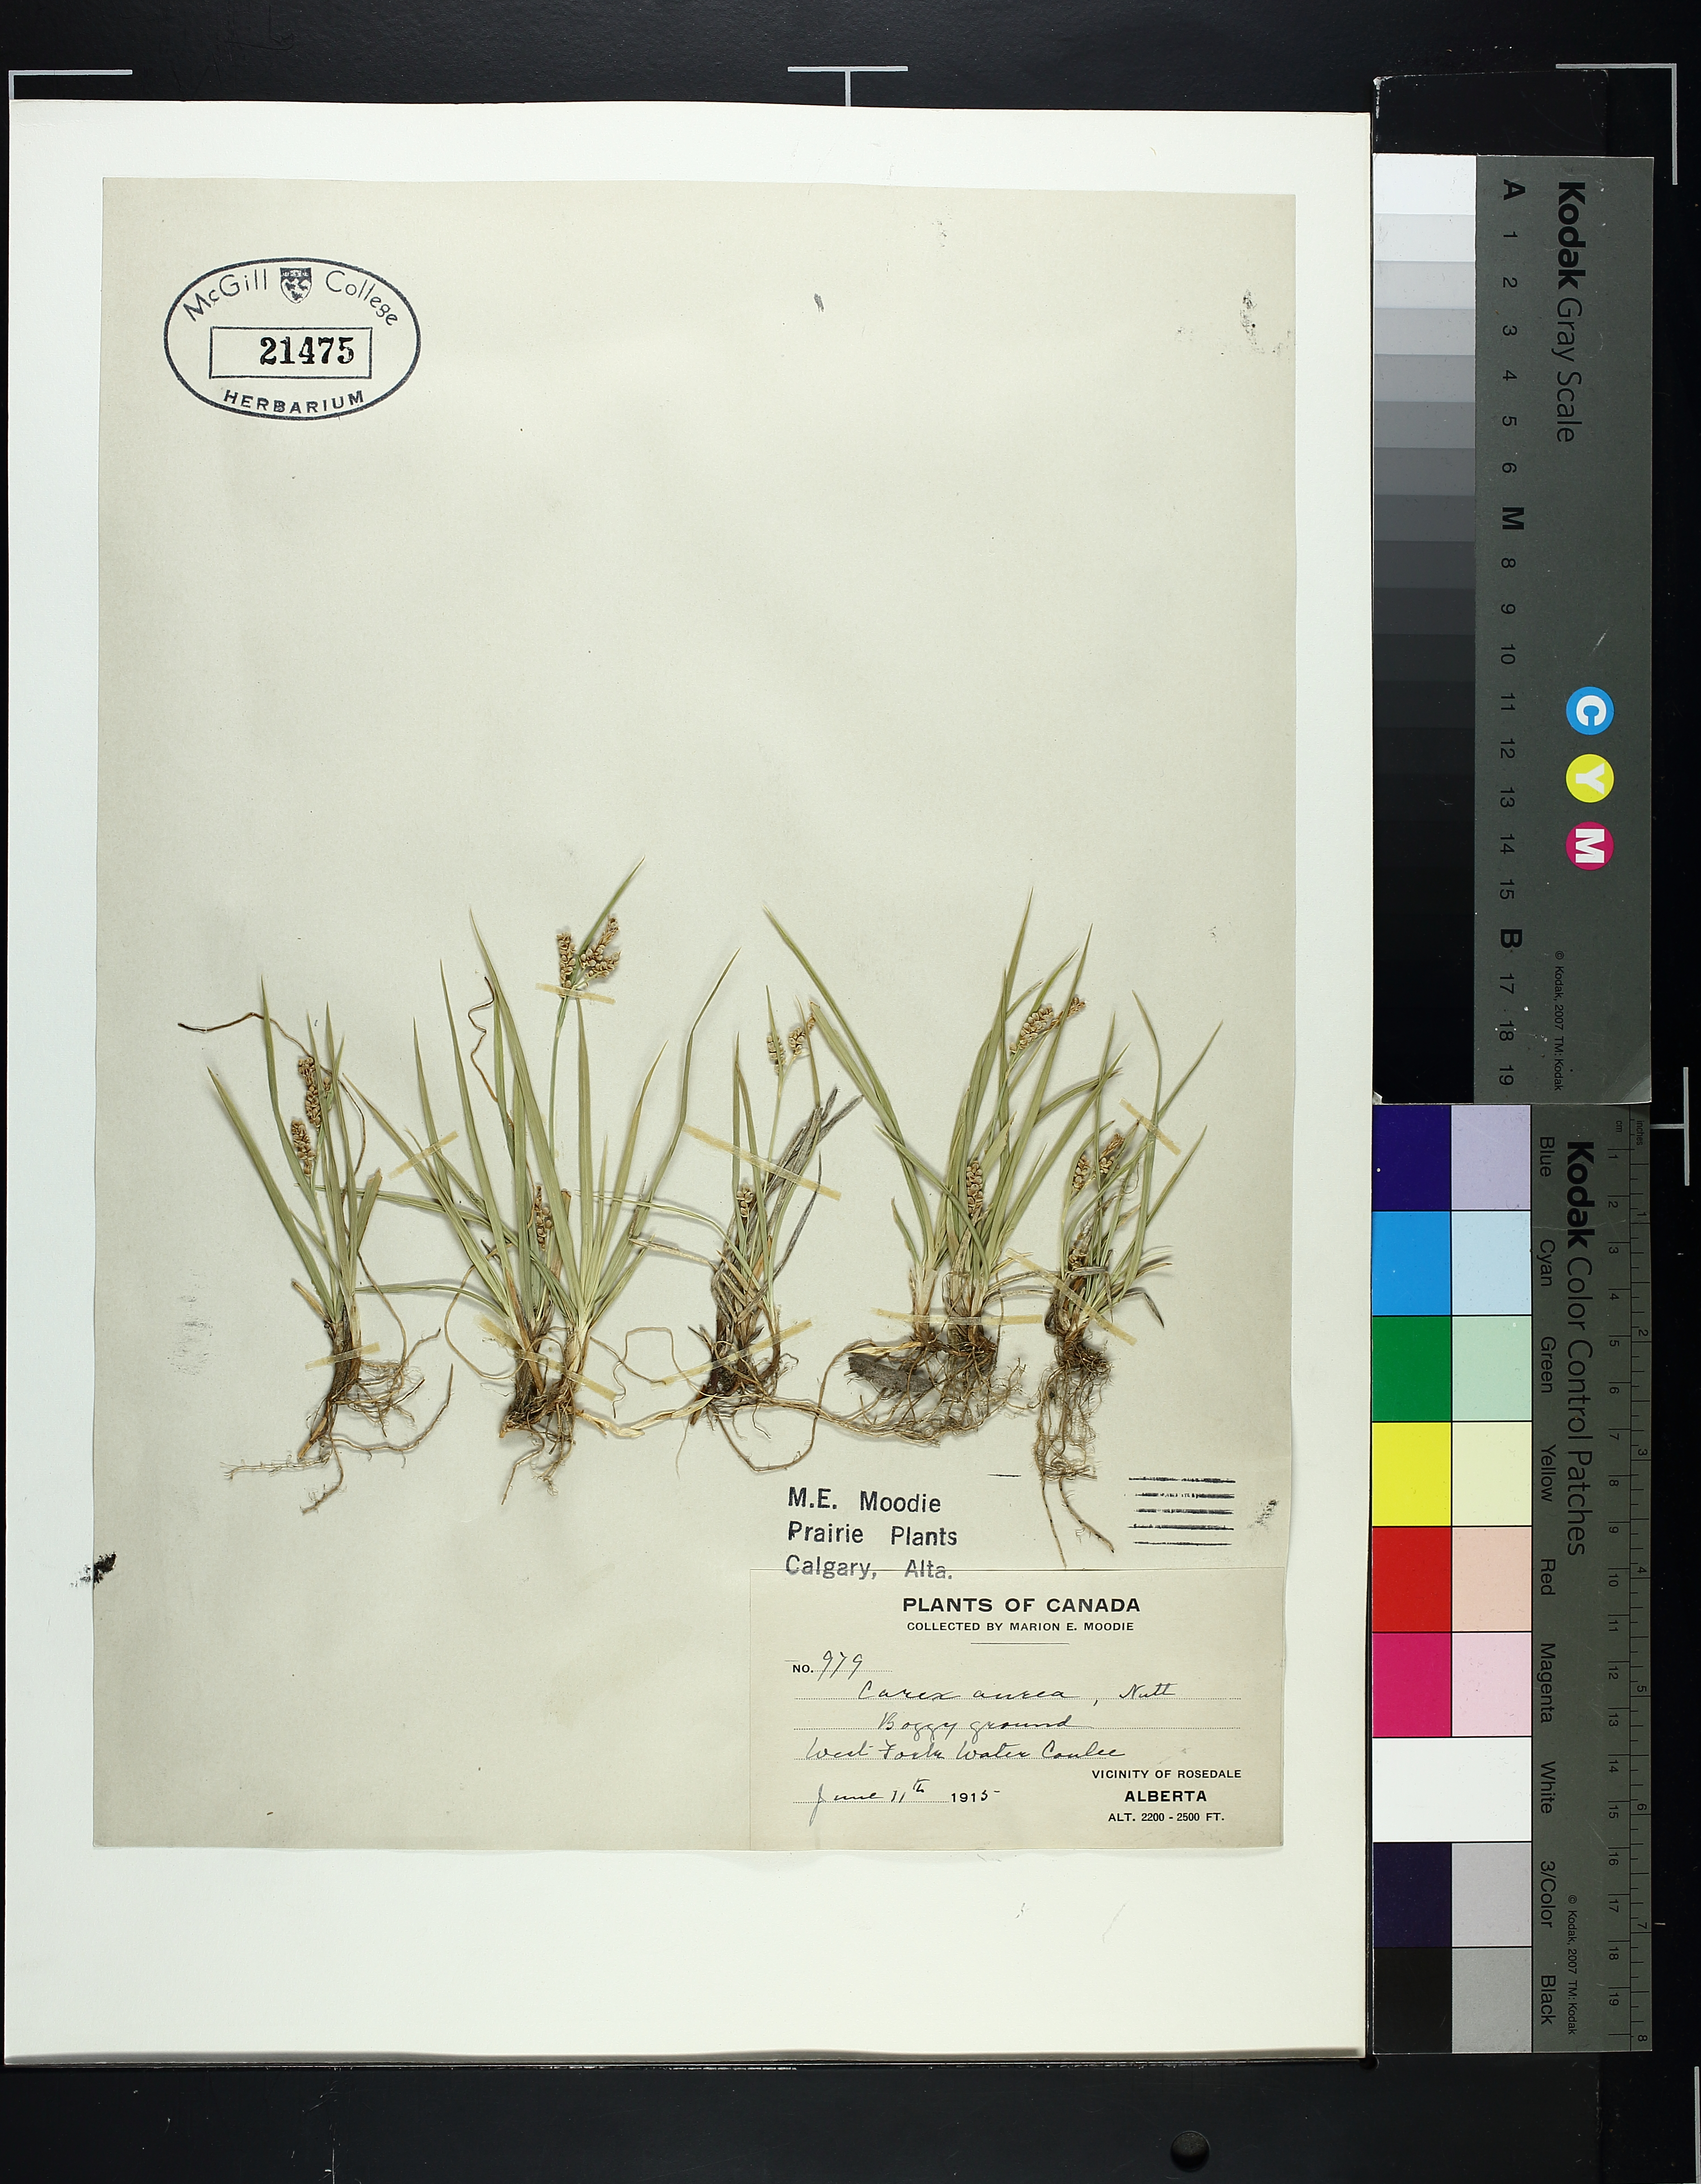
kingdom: Plantae
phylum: Tracheophyta
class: Liliopsida
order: Poales
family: Cyperaceae
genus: Carex
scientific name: Carex aurea
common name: Golden sedge
